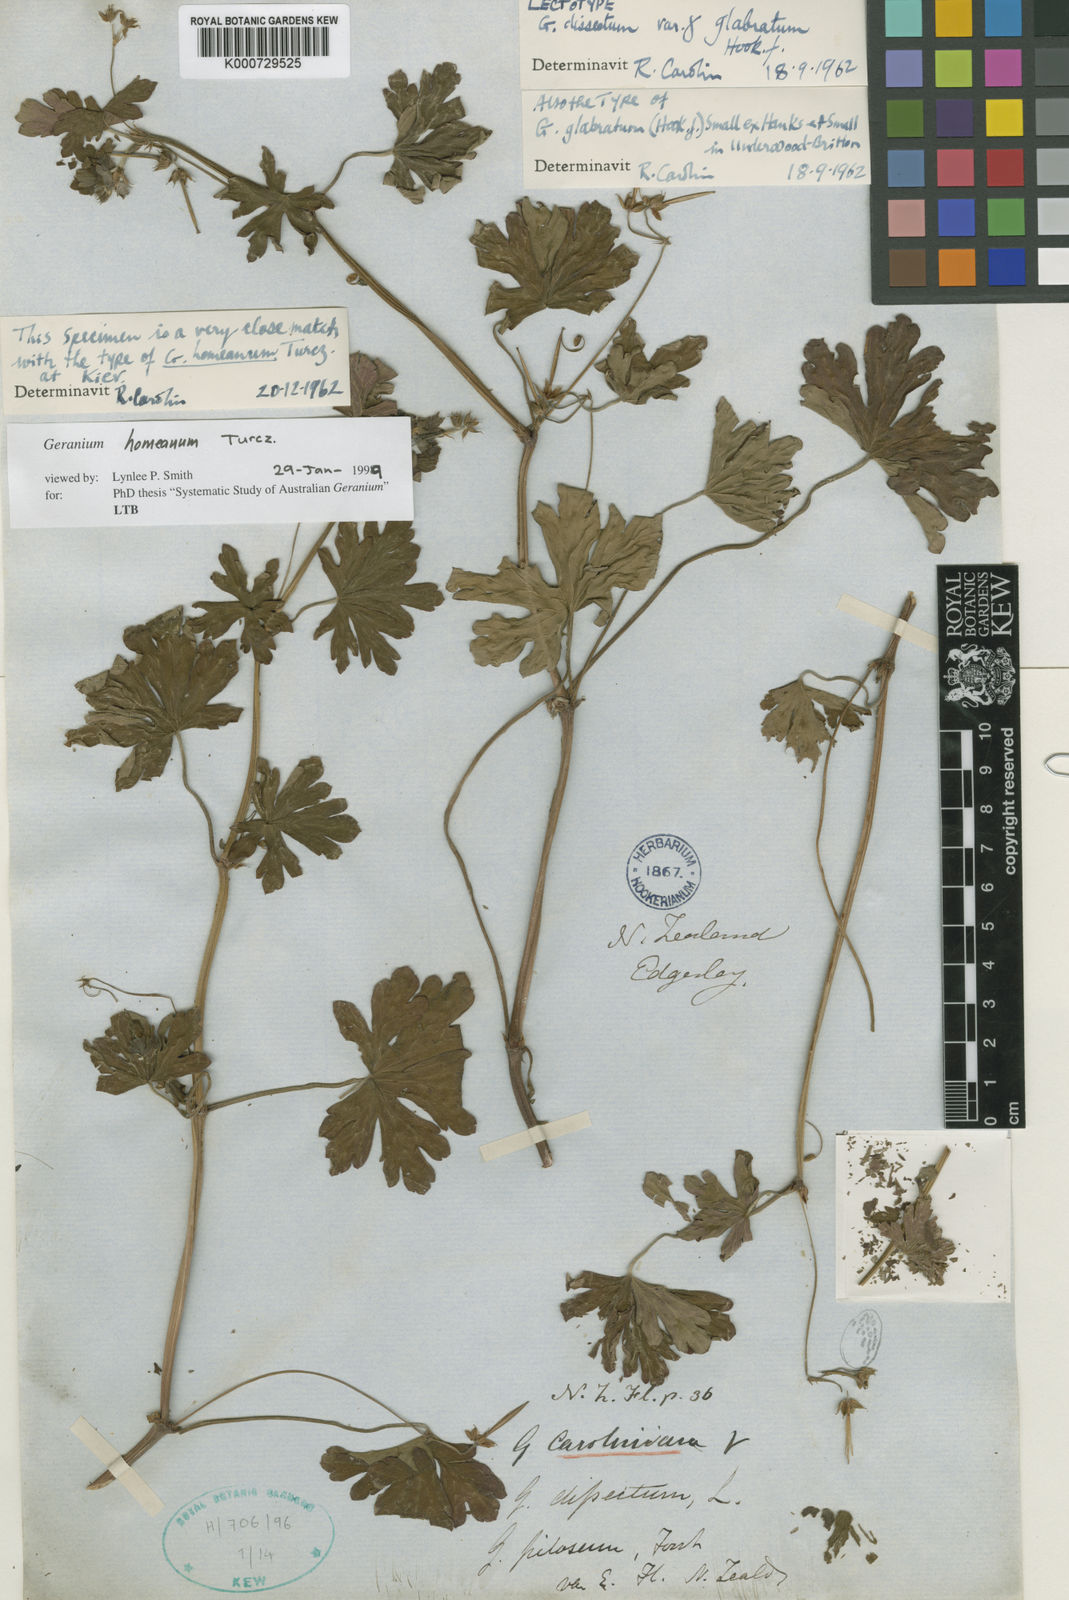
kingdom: Plantae
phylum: Tracheophyta
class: Magnoliopsida
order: Geraniales
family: Geraniaceae
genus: Geranium
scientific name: Geranium homeanum
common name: Australasian geranium
